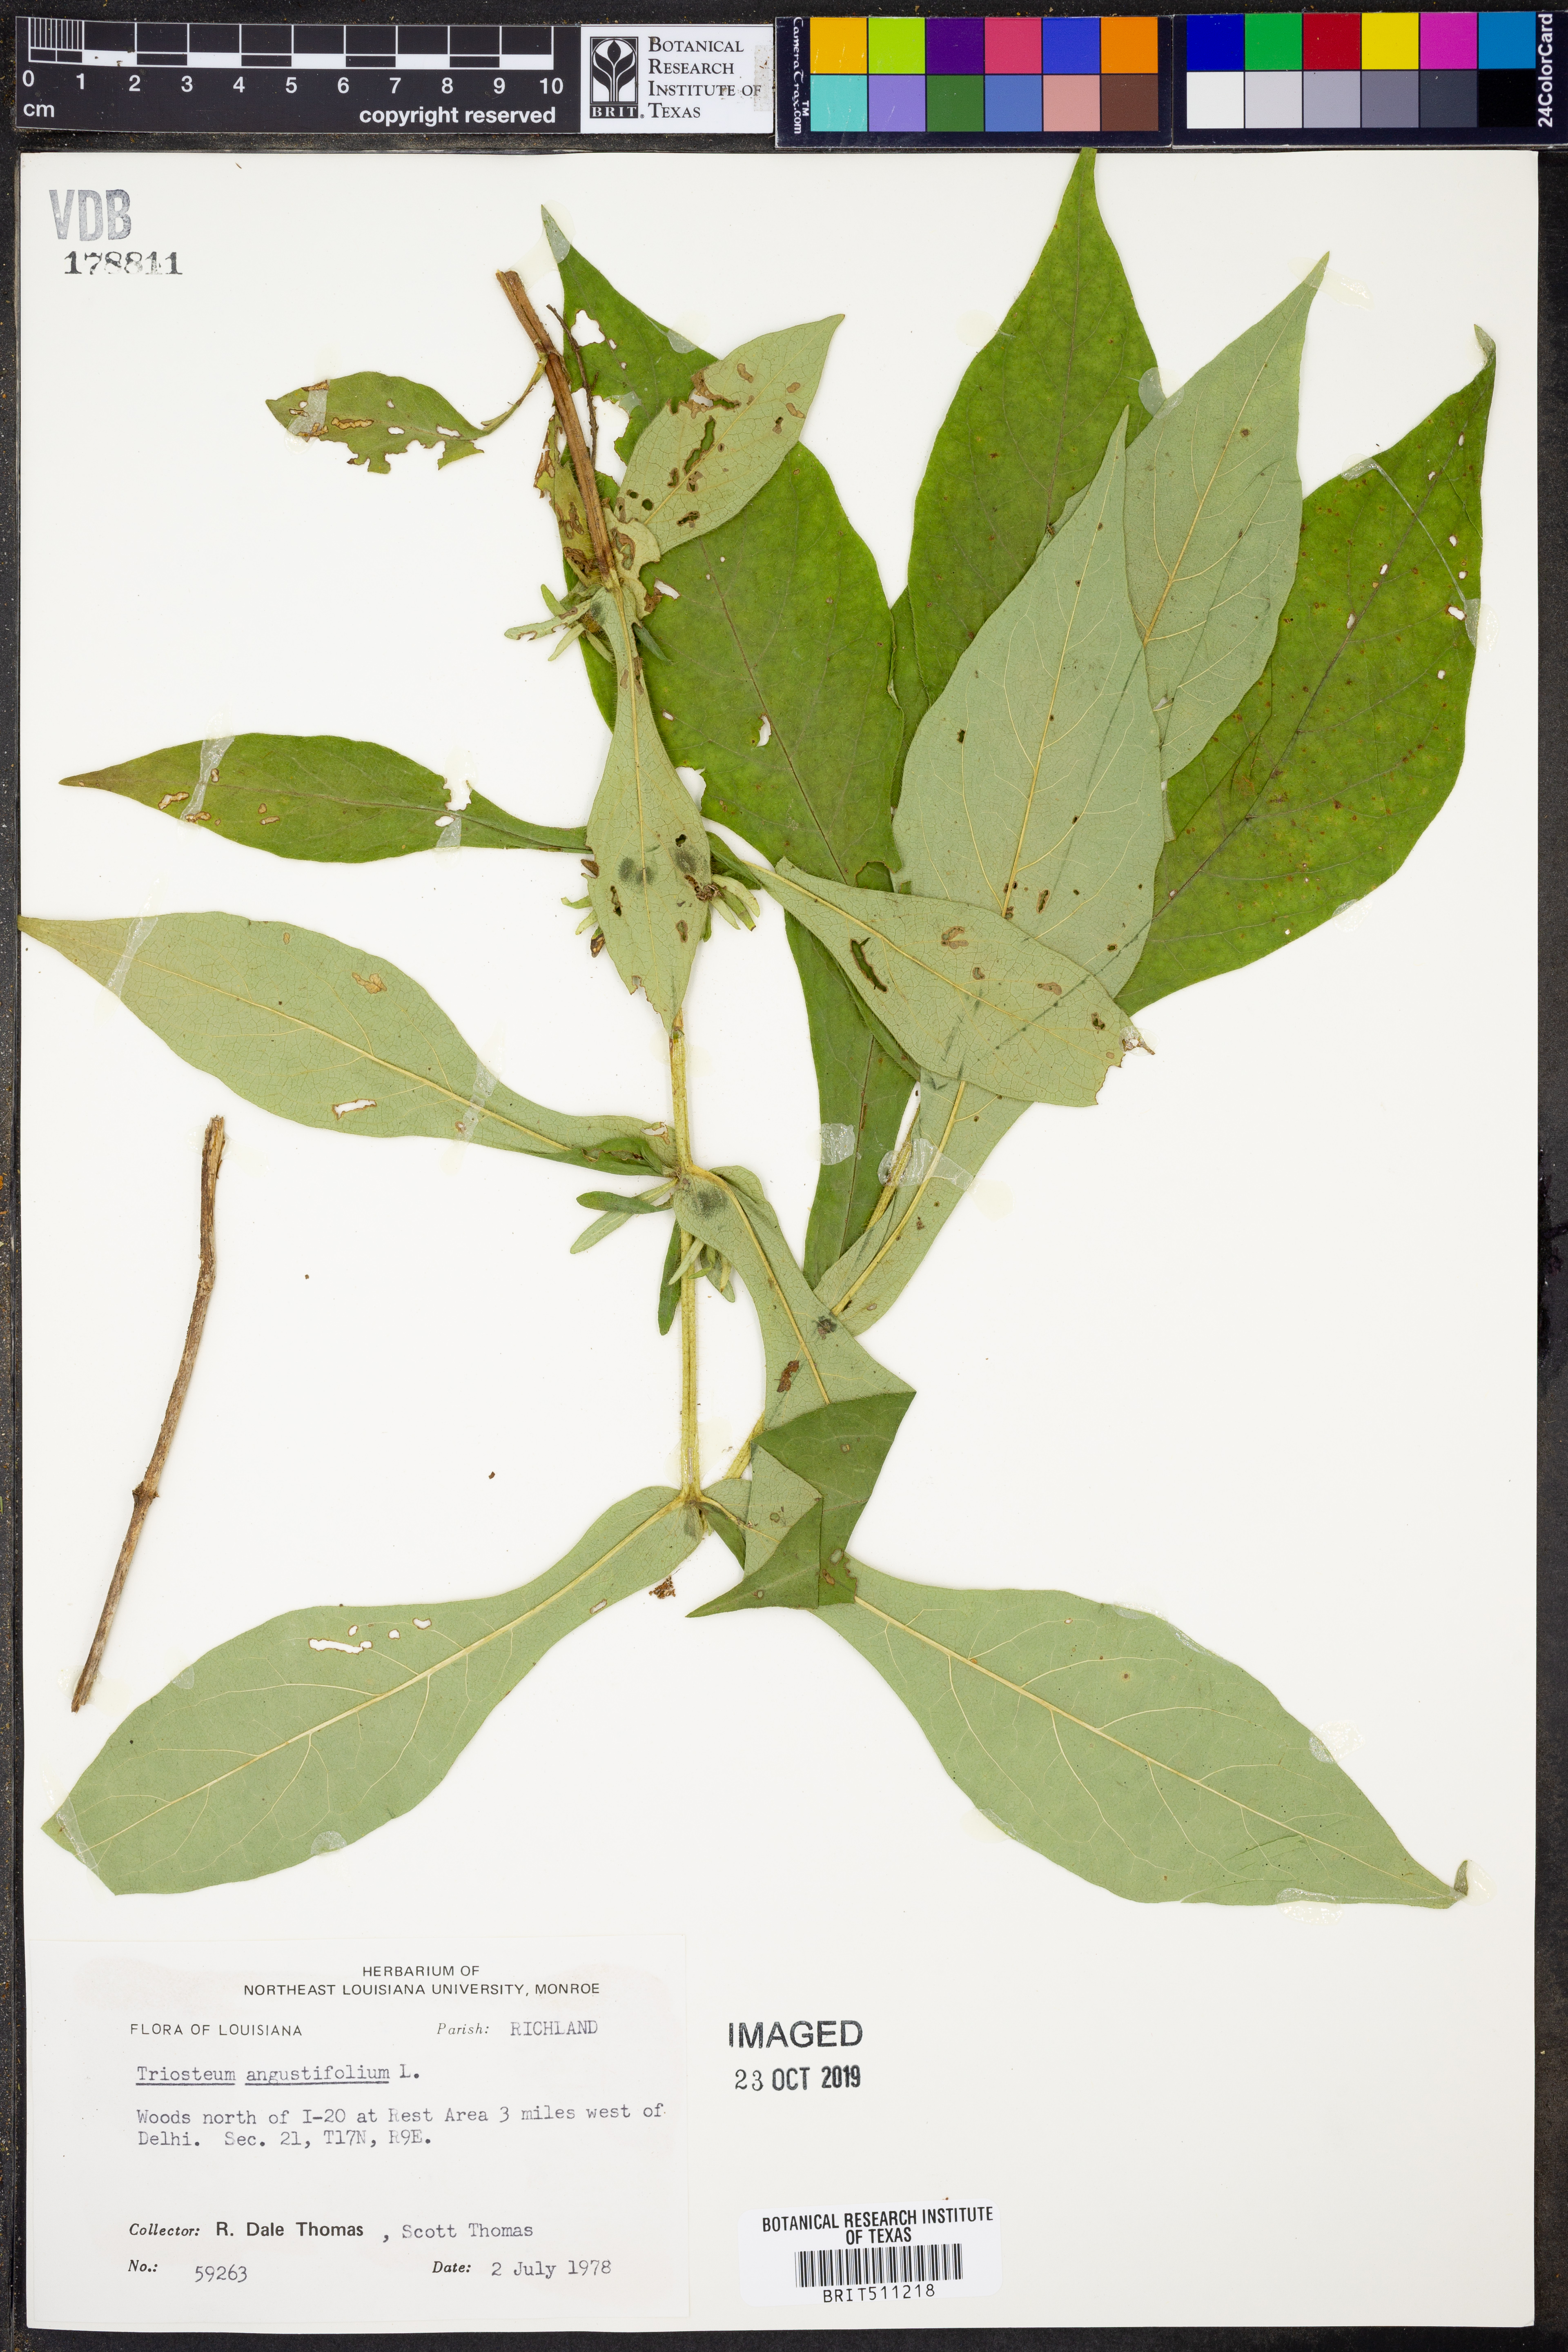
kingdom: Plantae
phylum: Tracheophyta
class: Magnoliopsida
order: Dipsacales
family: Caprifoliaceae
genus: Triosteum
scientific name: Triosteum angustifolium
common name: Narrow-leaved horse-gentian
